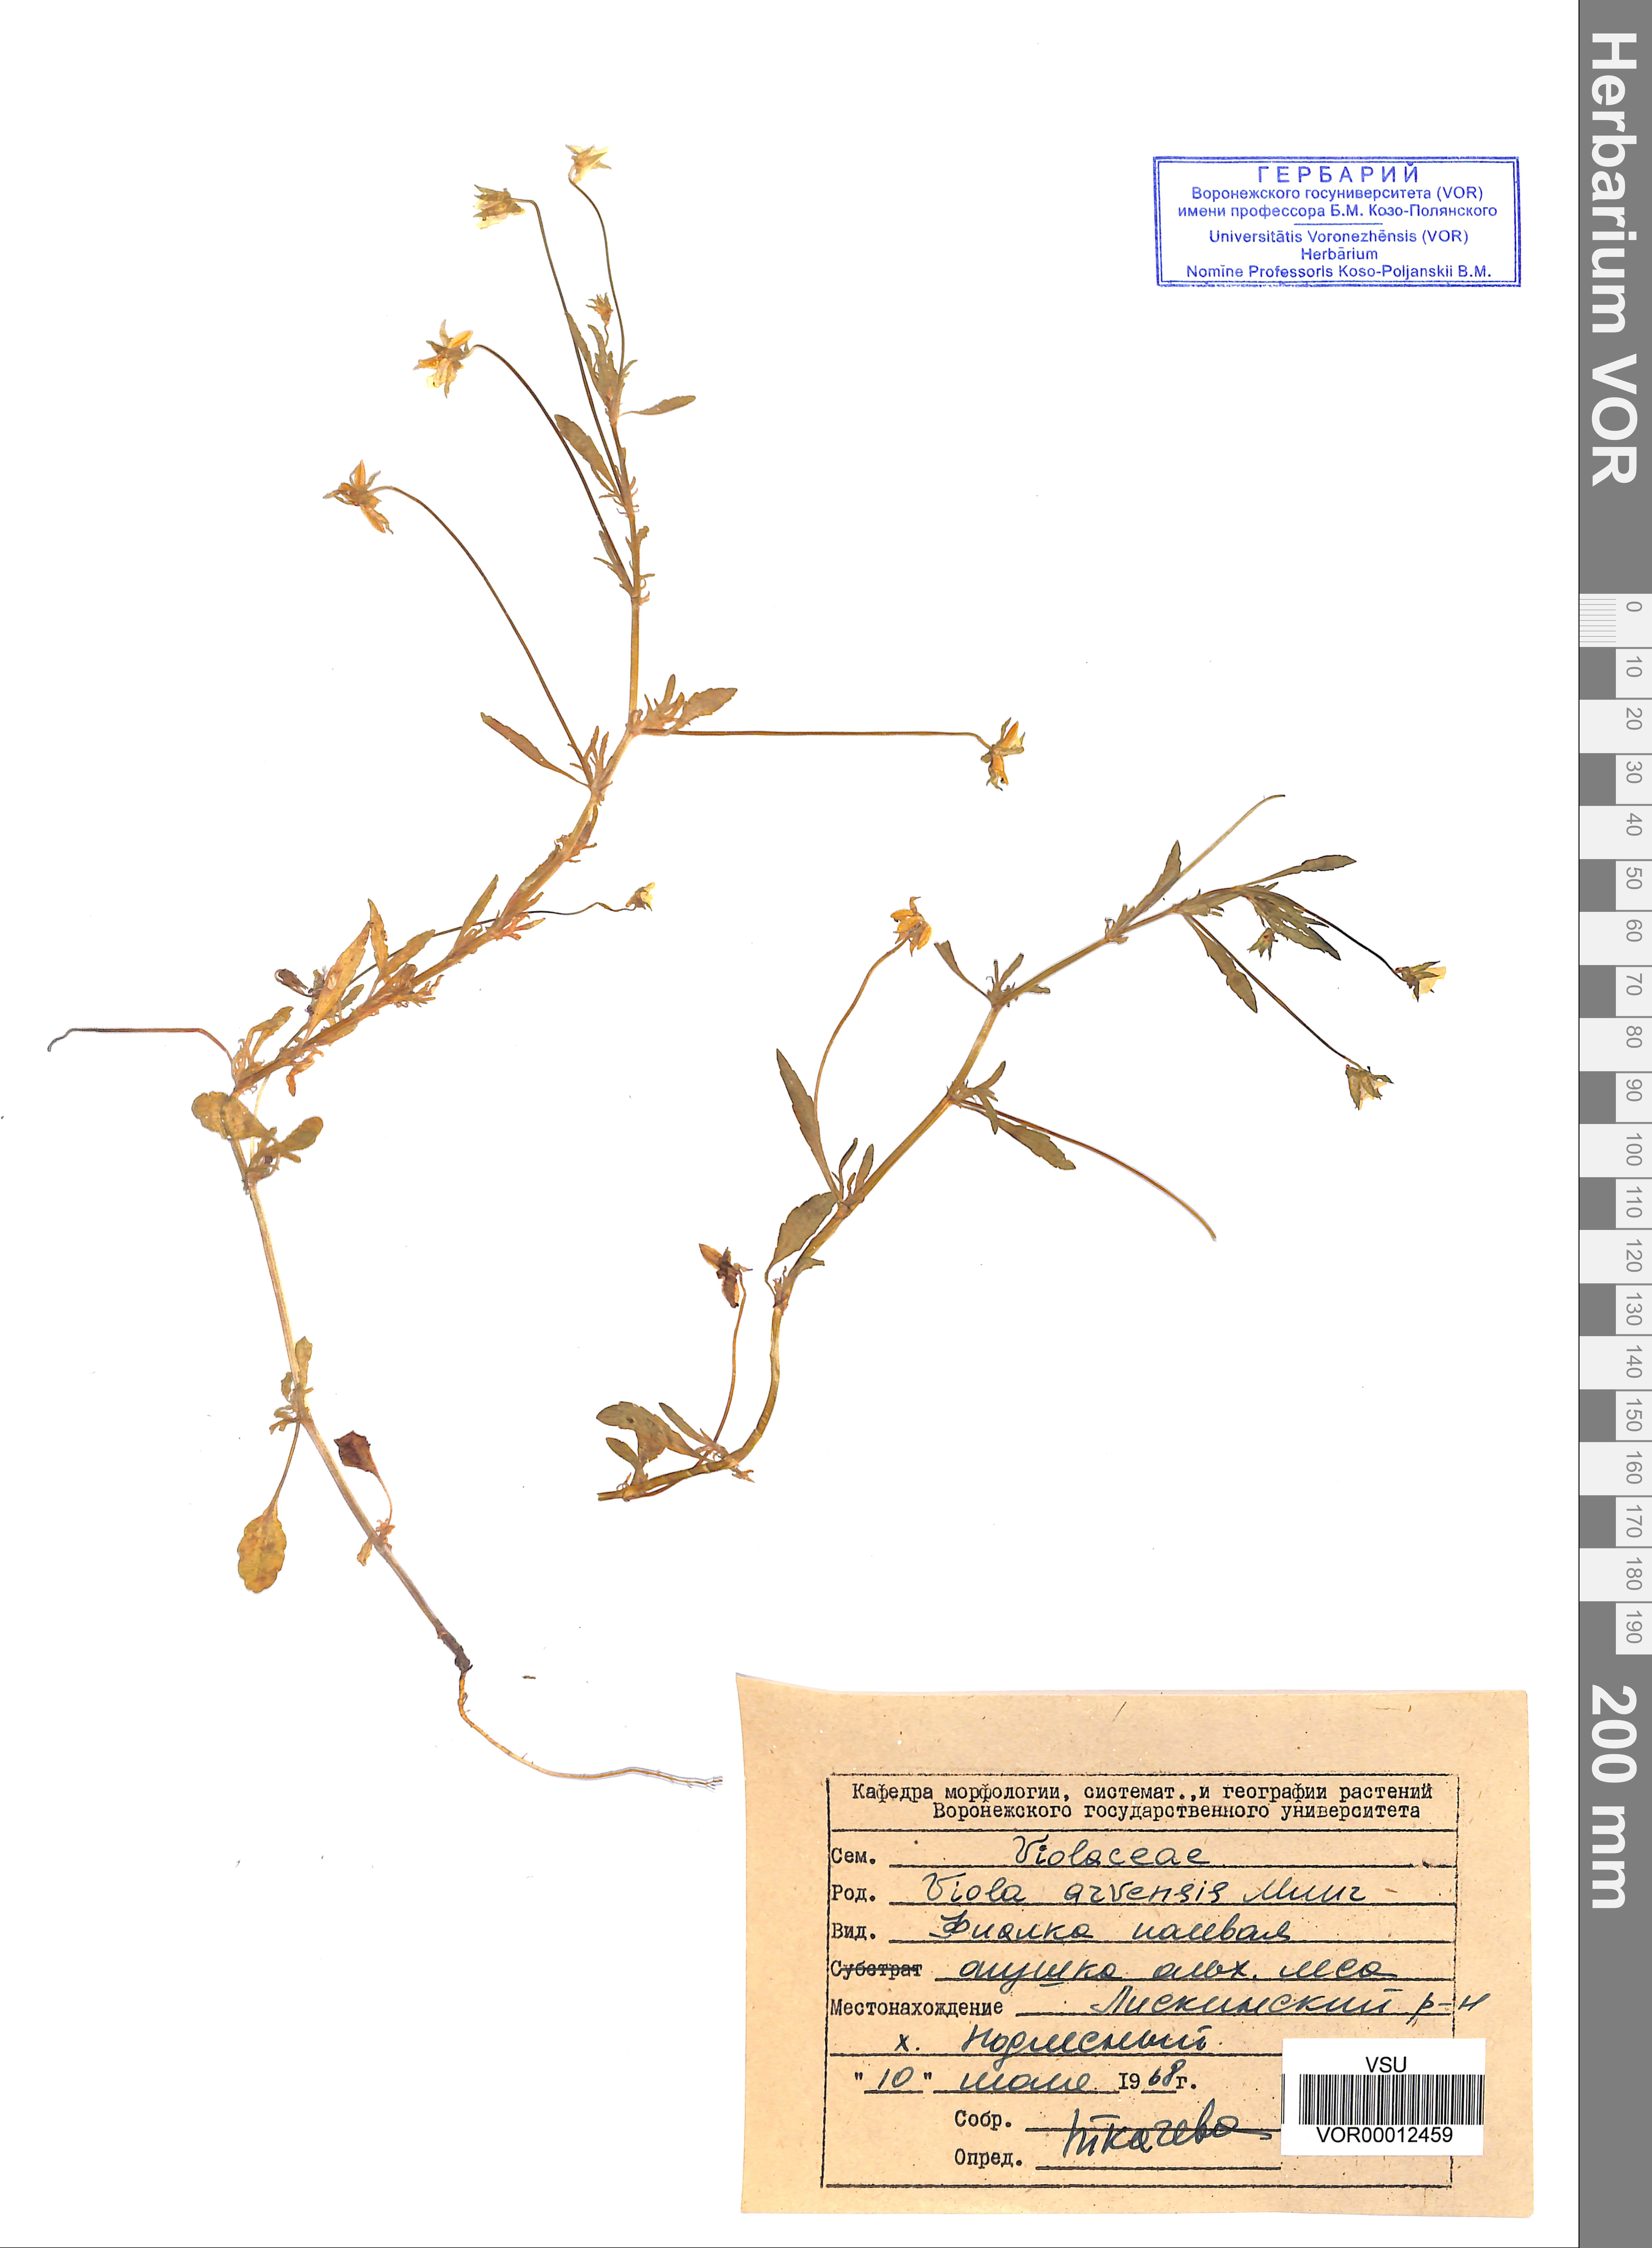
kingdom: Plantae
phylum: Tracheophyta
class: Magnoliopsida
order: Malpighiales
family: Violaceae
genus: Viola
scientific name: Viola arvensis
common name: Field pansy
